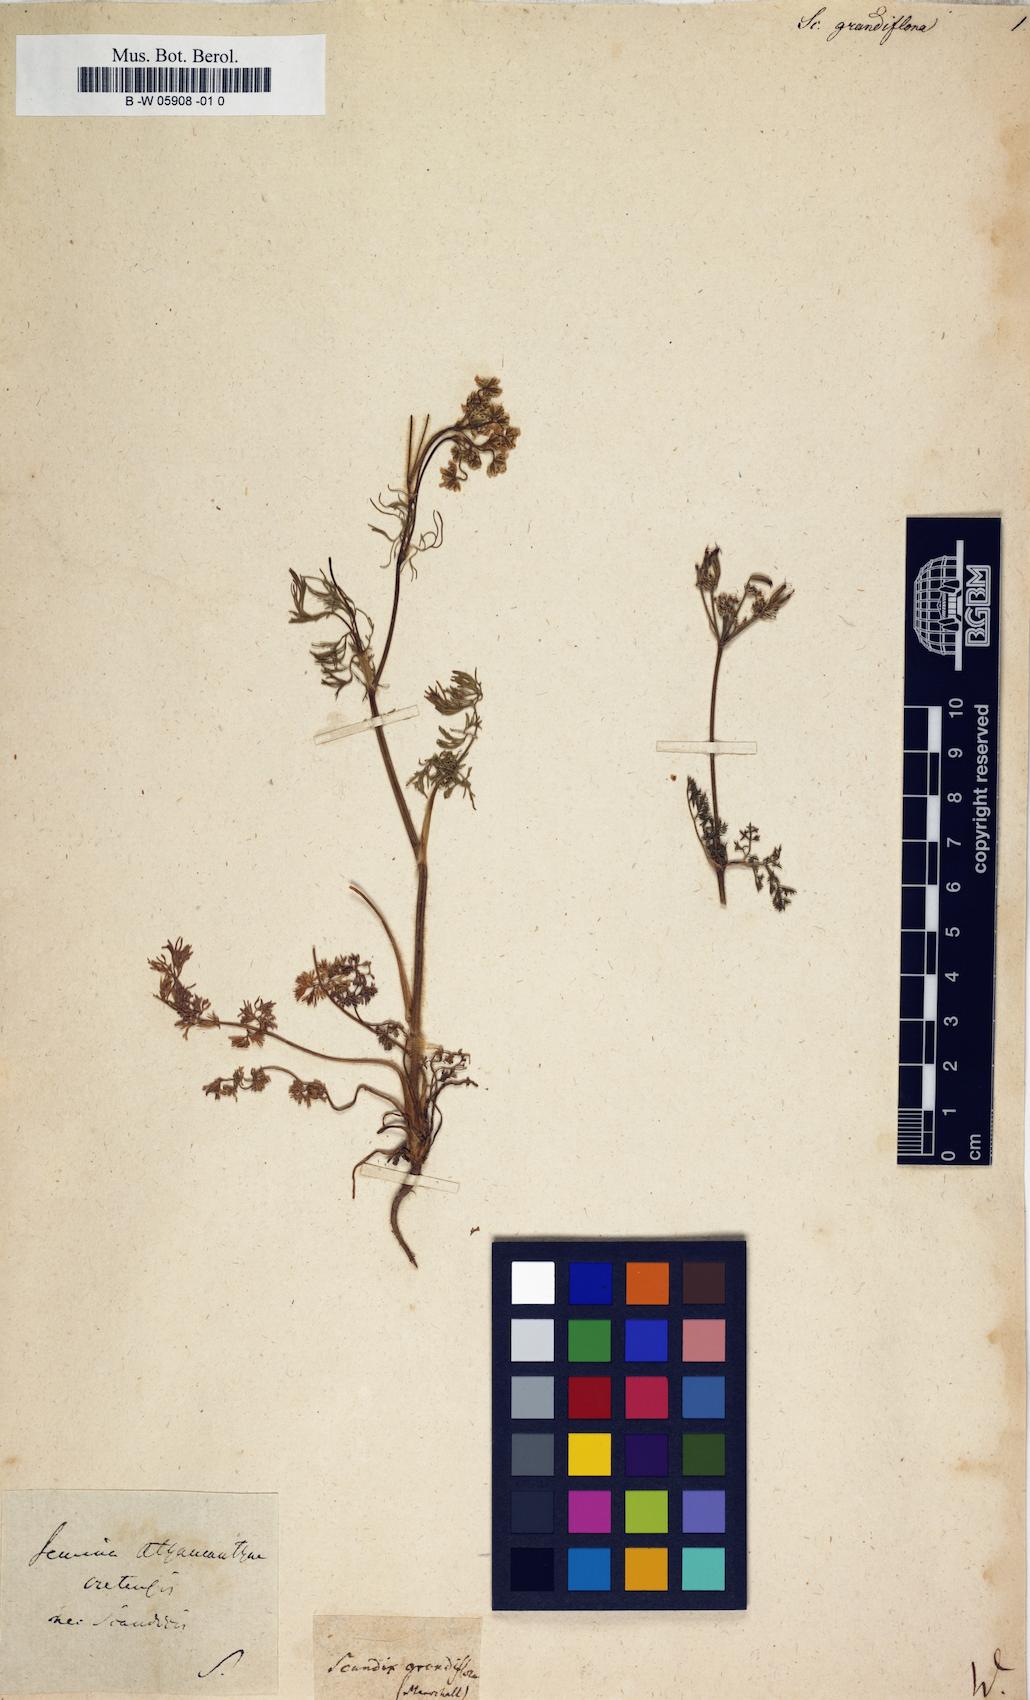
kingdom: Plantae
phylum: Tracheophyta
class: Magnoliopsida
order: Apiales
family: Apiaceae
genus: Scandix
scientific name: Scandix australis
